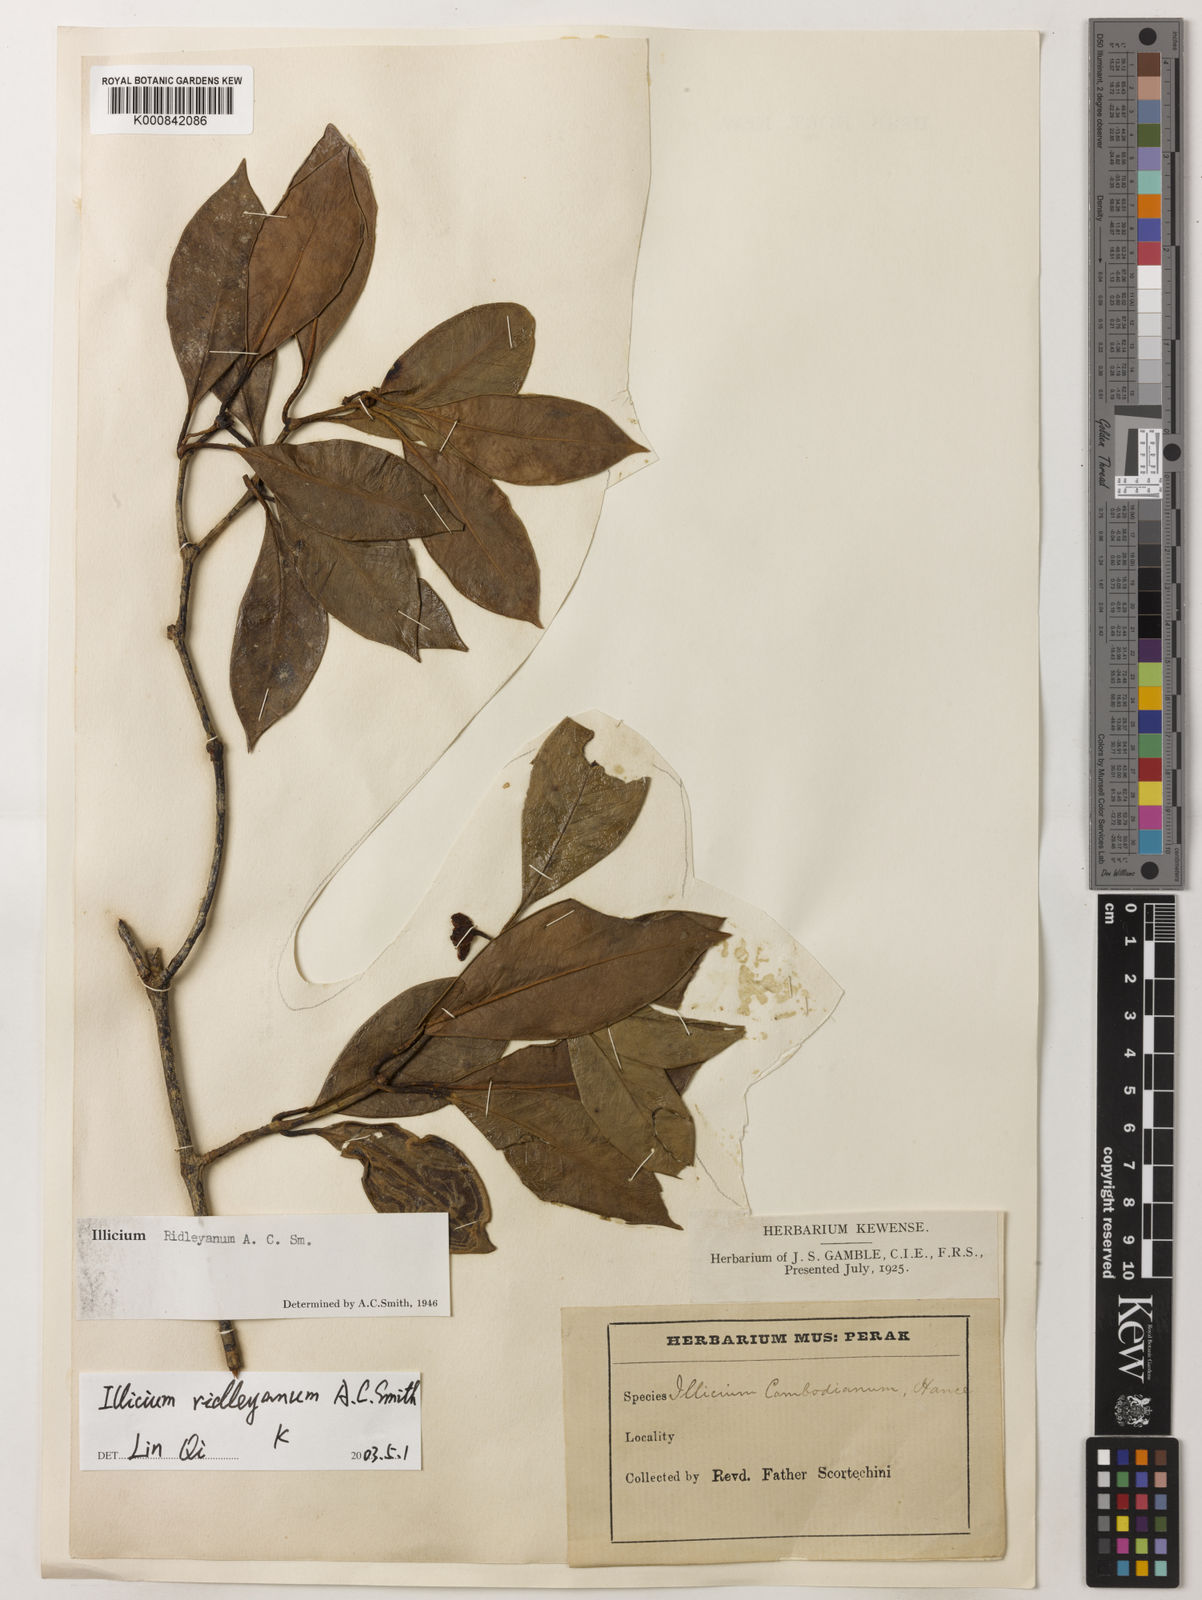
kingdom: Plantae
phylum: Tracheophyta
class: Magnoliopsida
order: Austrobaileyales
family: Schisandraceae
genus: Illicium
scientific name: Illicium ridleyanum
